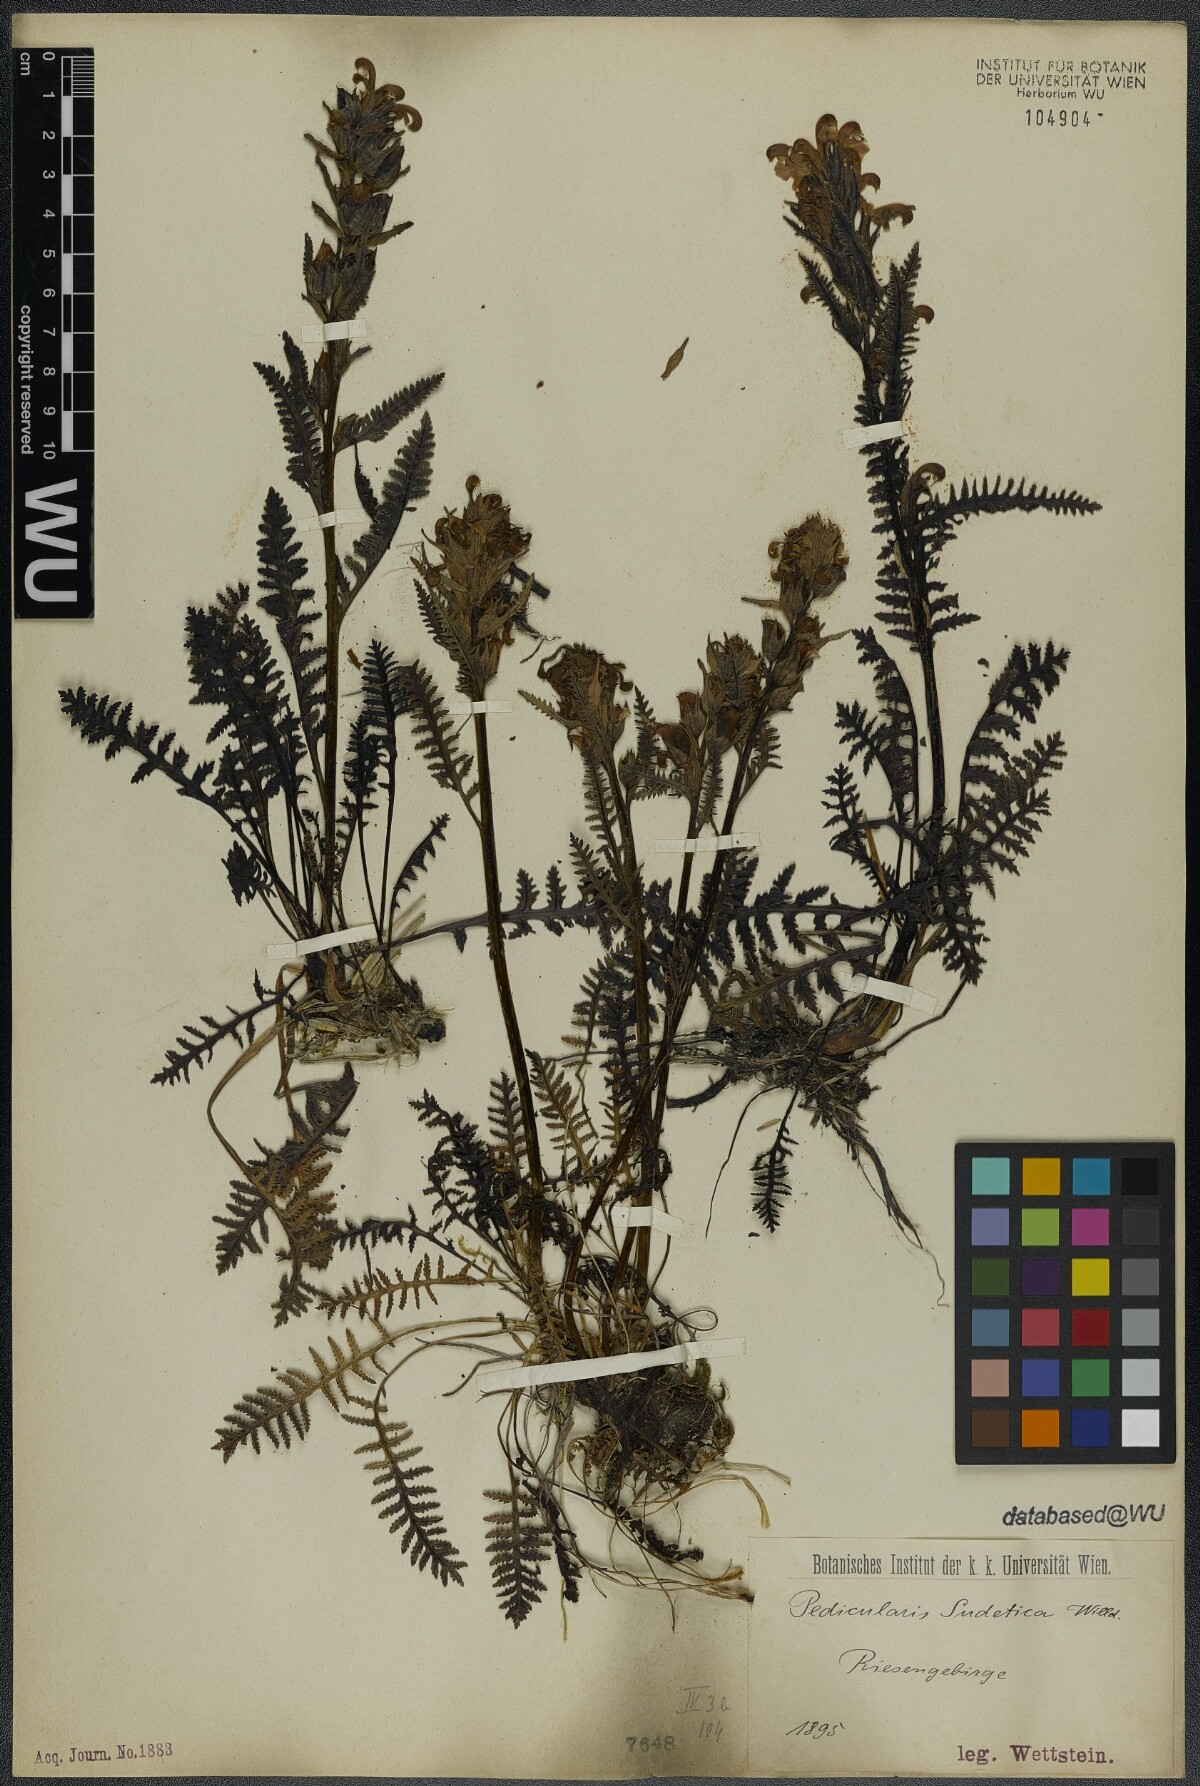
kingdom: Plantae
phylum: Tracheophyta
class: Magnoliopsida
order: Lamiales
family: Orobanchaceae
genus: Pedicularis
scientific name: Pedicularis sudetica
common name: Sudeten lousewort
